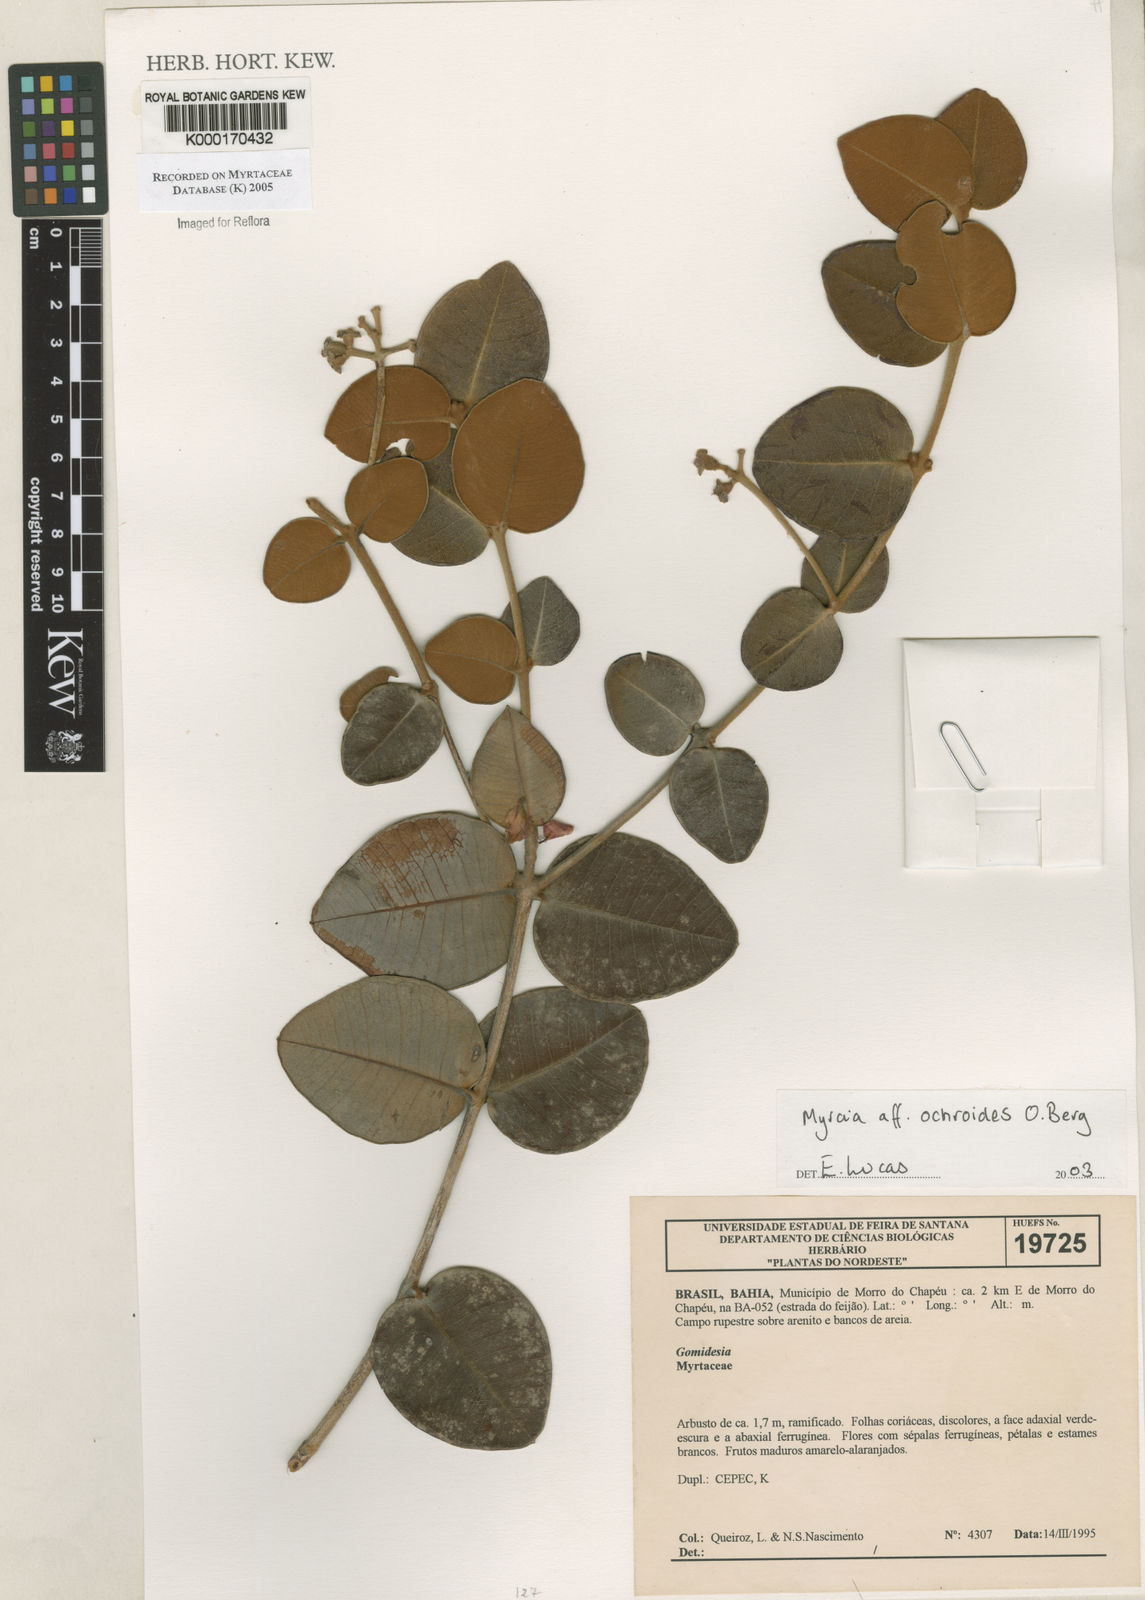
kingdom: Plantae
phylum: Tracheophyta
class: Magnoliopsida
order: Myrtales
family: Myrtaceae
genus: Myrcia
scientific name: Myrcia ochroides
